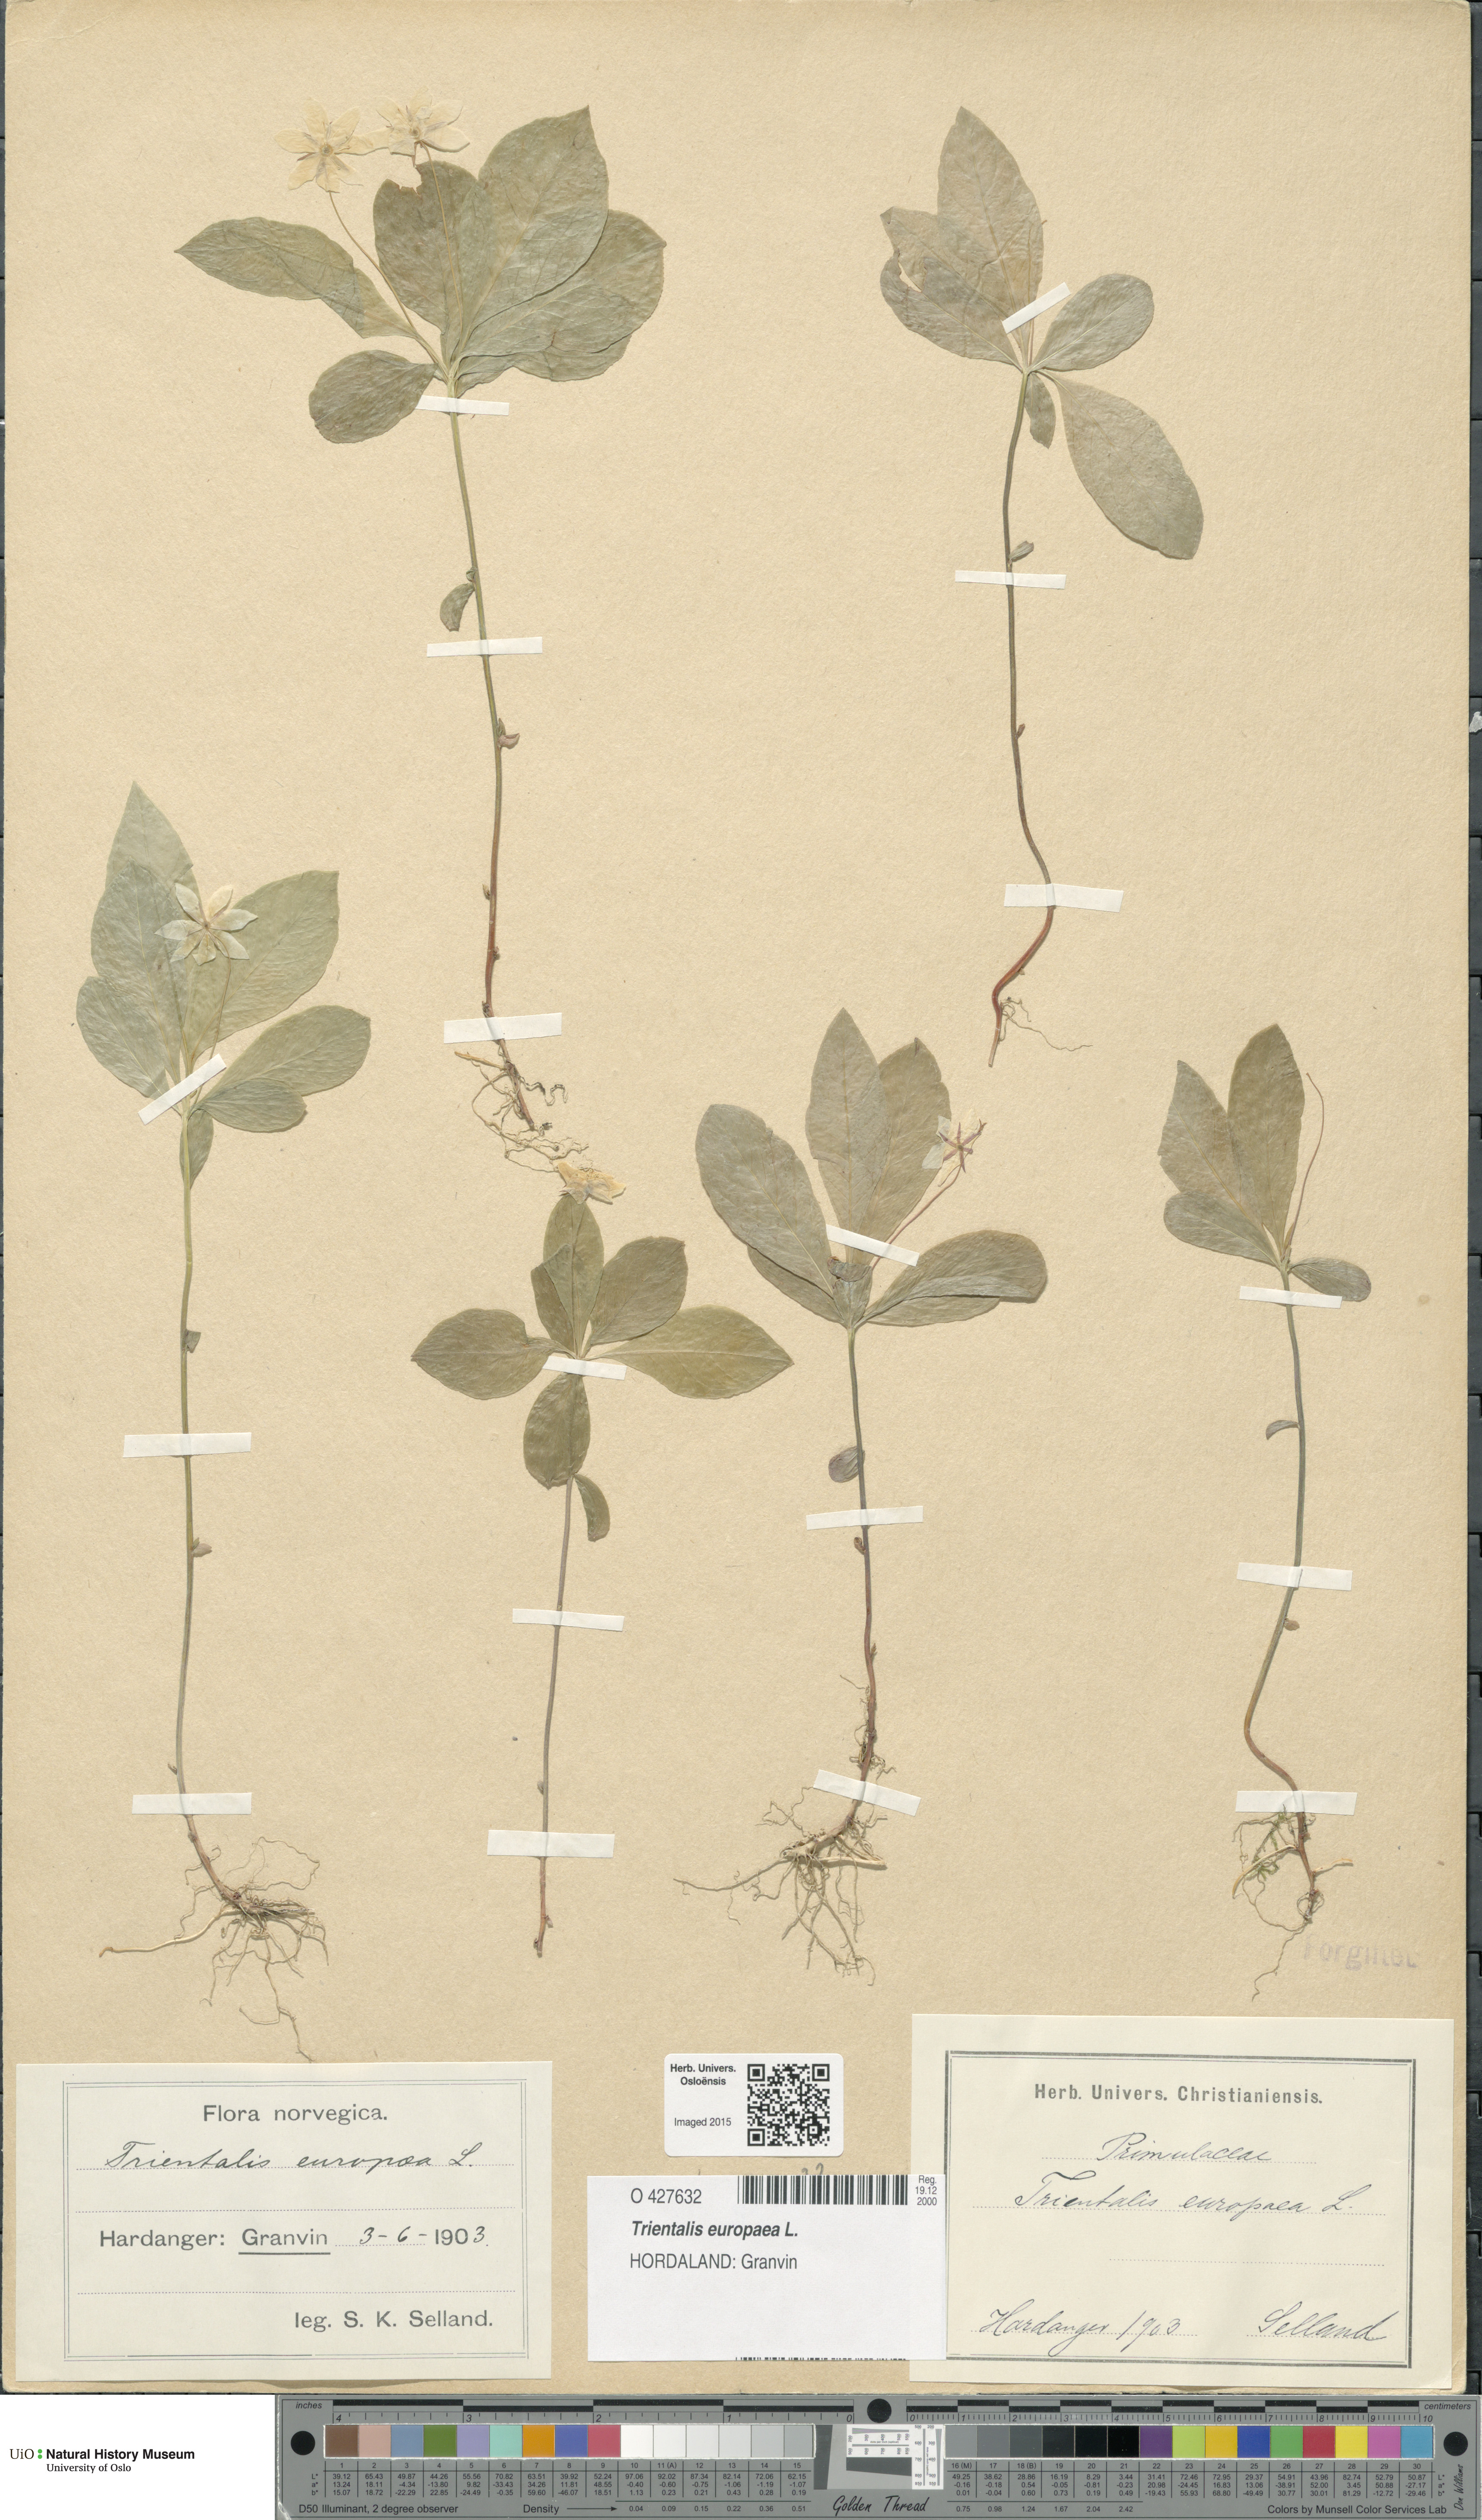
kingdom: Plantae
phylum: Tracheophyta
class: Magnoliopsida
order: Ericales
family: Primulaceae
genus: Lysimachia
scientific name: Lysimachia europaea
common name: Arctic starflower
